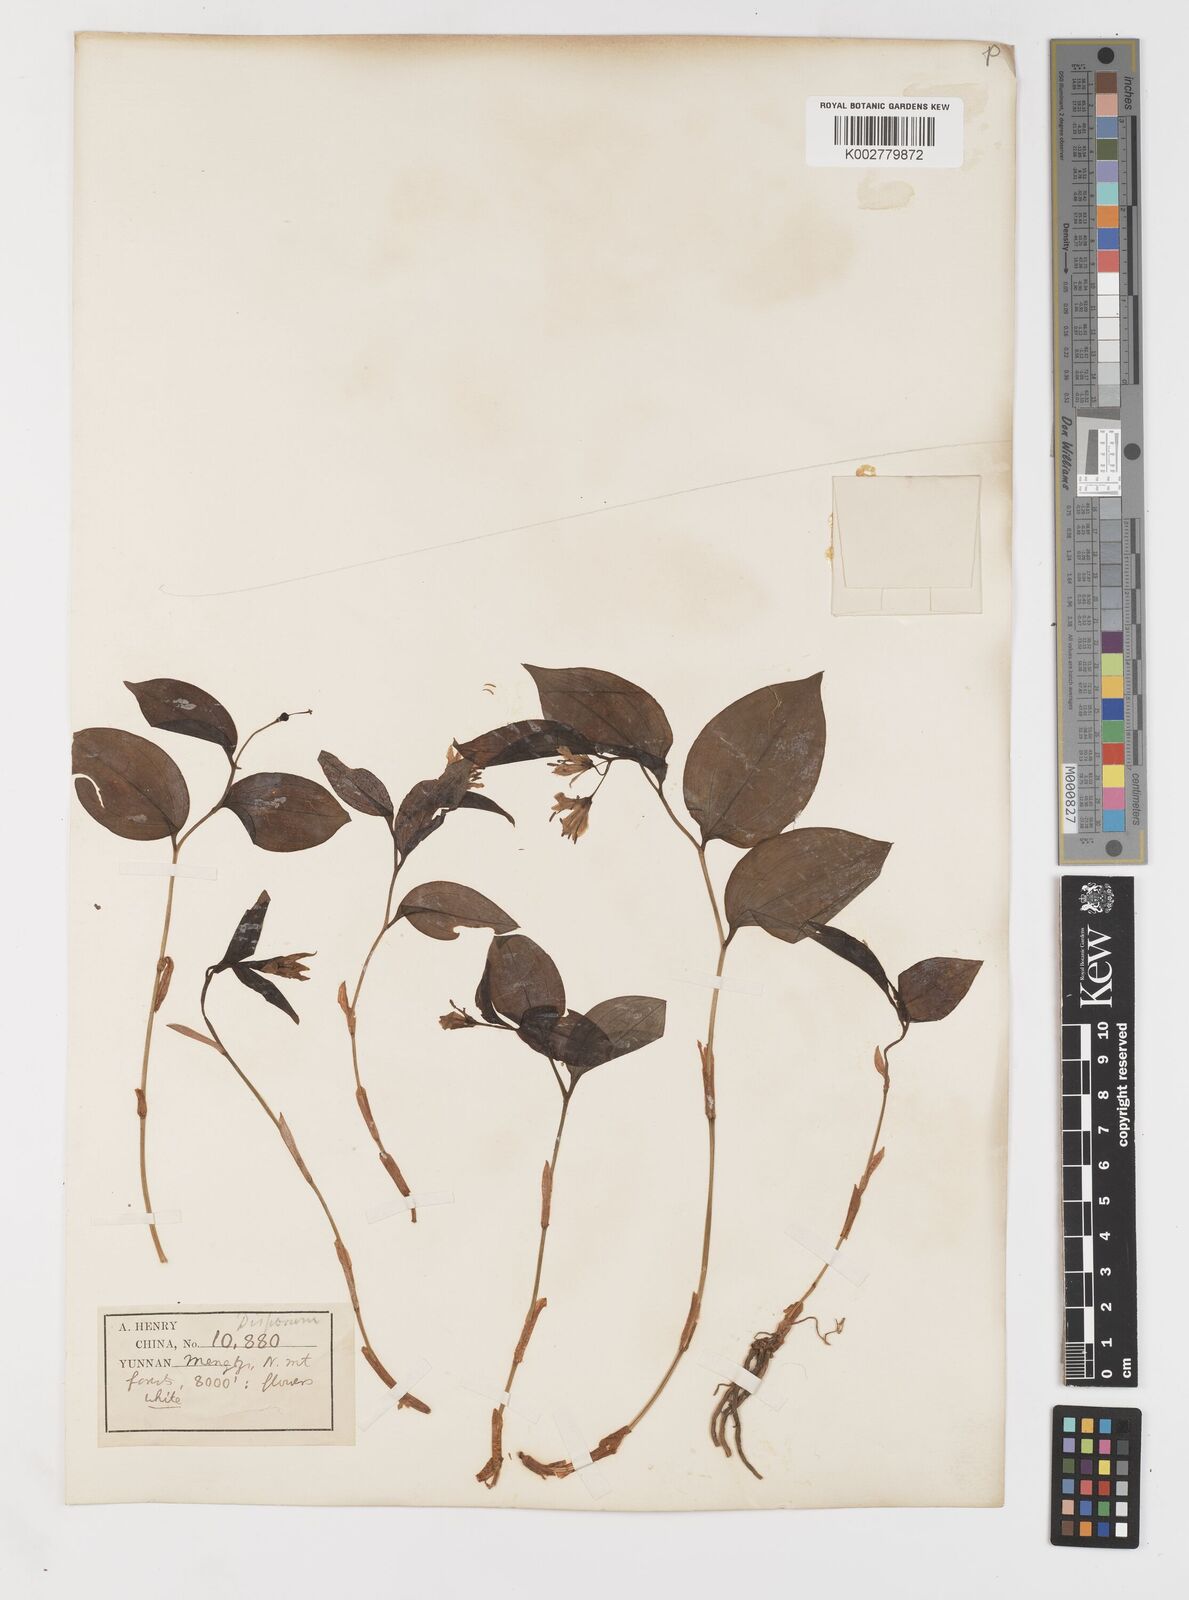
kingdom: Plantae
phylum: Tracheophyta
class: Liliopsida
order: Liliales
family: Colchicaceae
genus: Disporum
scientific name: Disporum
